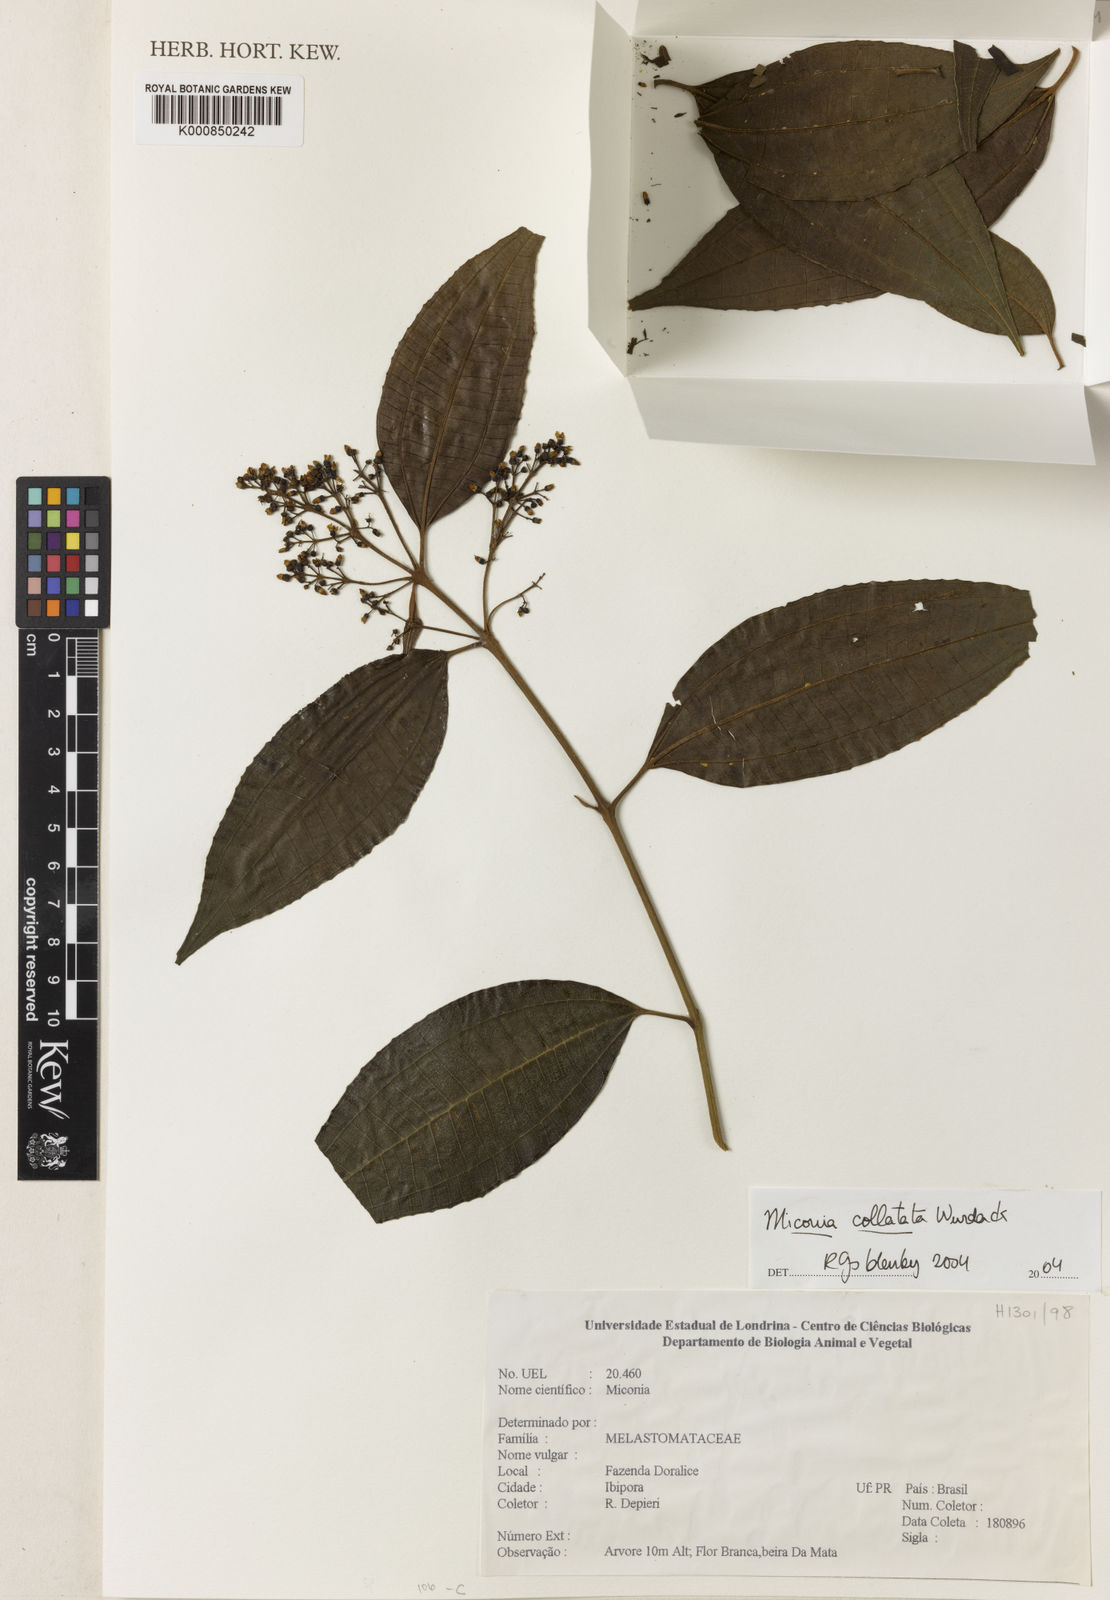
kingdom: Plantae
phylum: Tracheophyta
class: Magnoliopsida
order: Myrtales
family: Melastomataceae
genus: Miconia
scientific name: Miconia collatata
